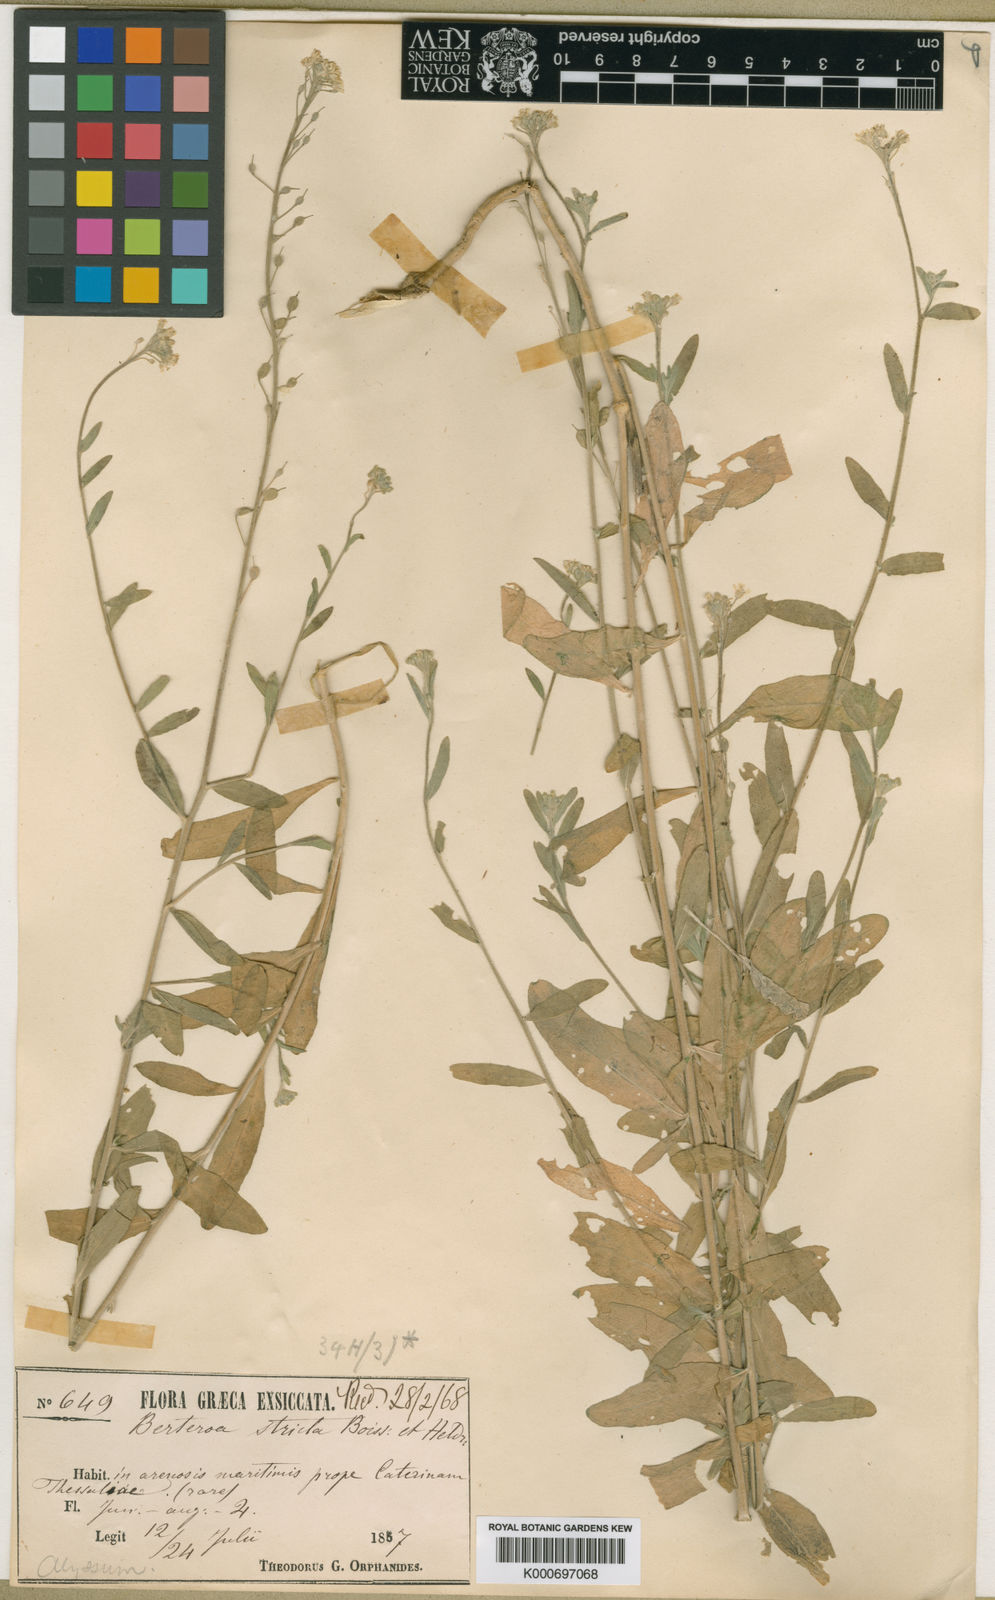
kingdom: Plantae
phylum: Tracheophyta
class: Magnoliopsida
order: Brassicales
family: Brassicaceae
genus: Berteroa
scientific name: Berteroa orbiculata
